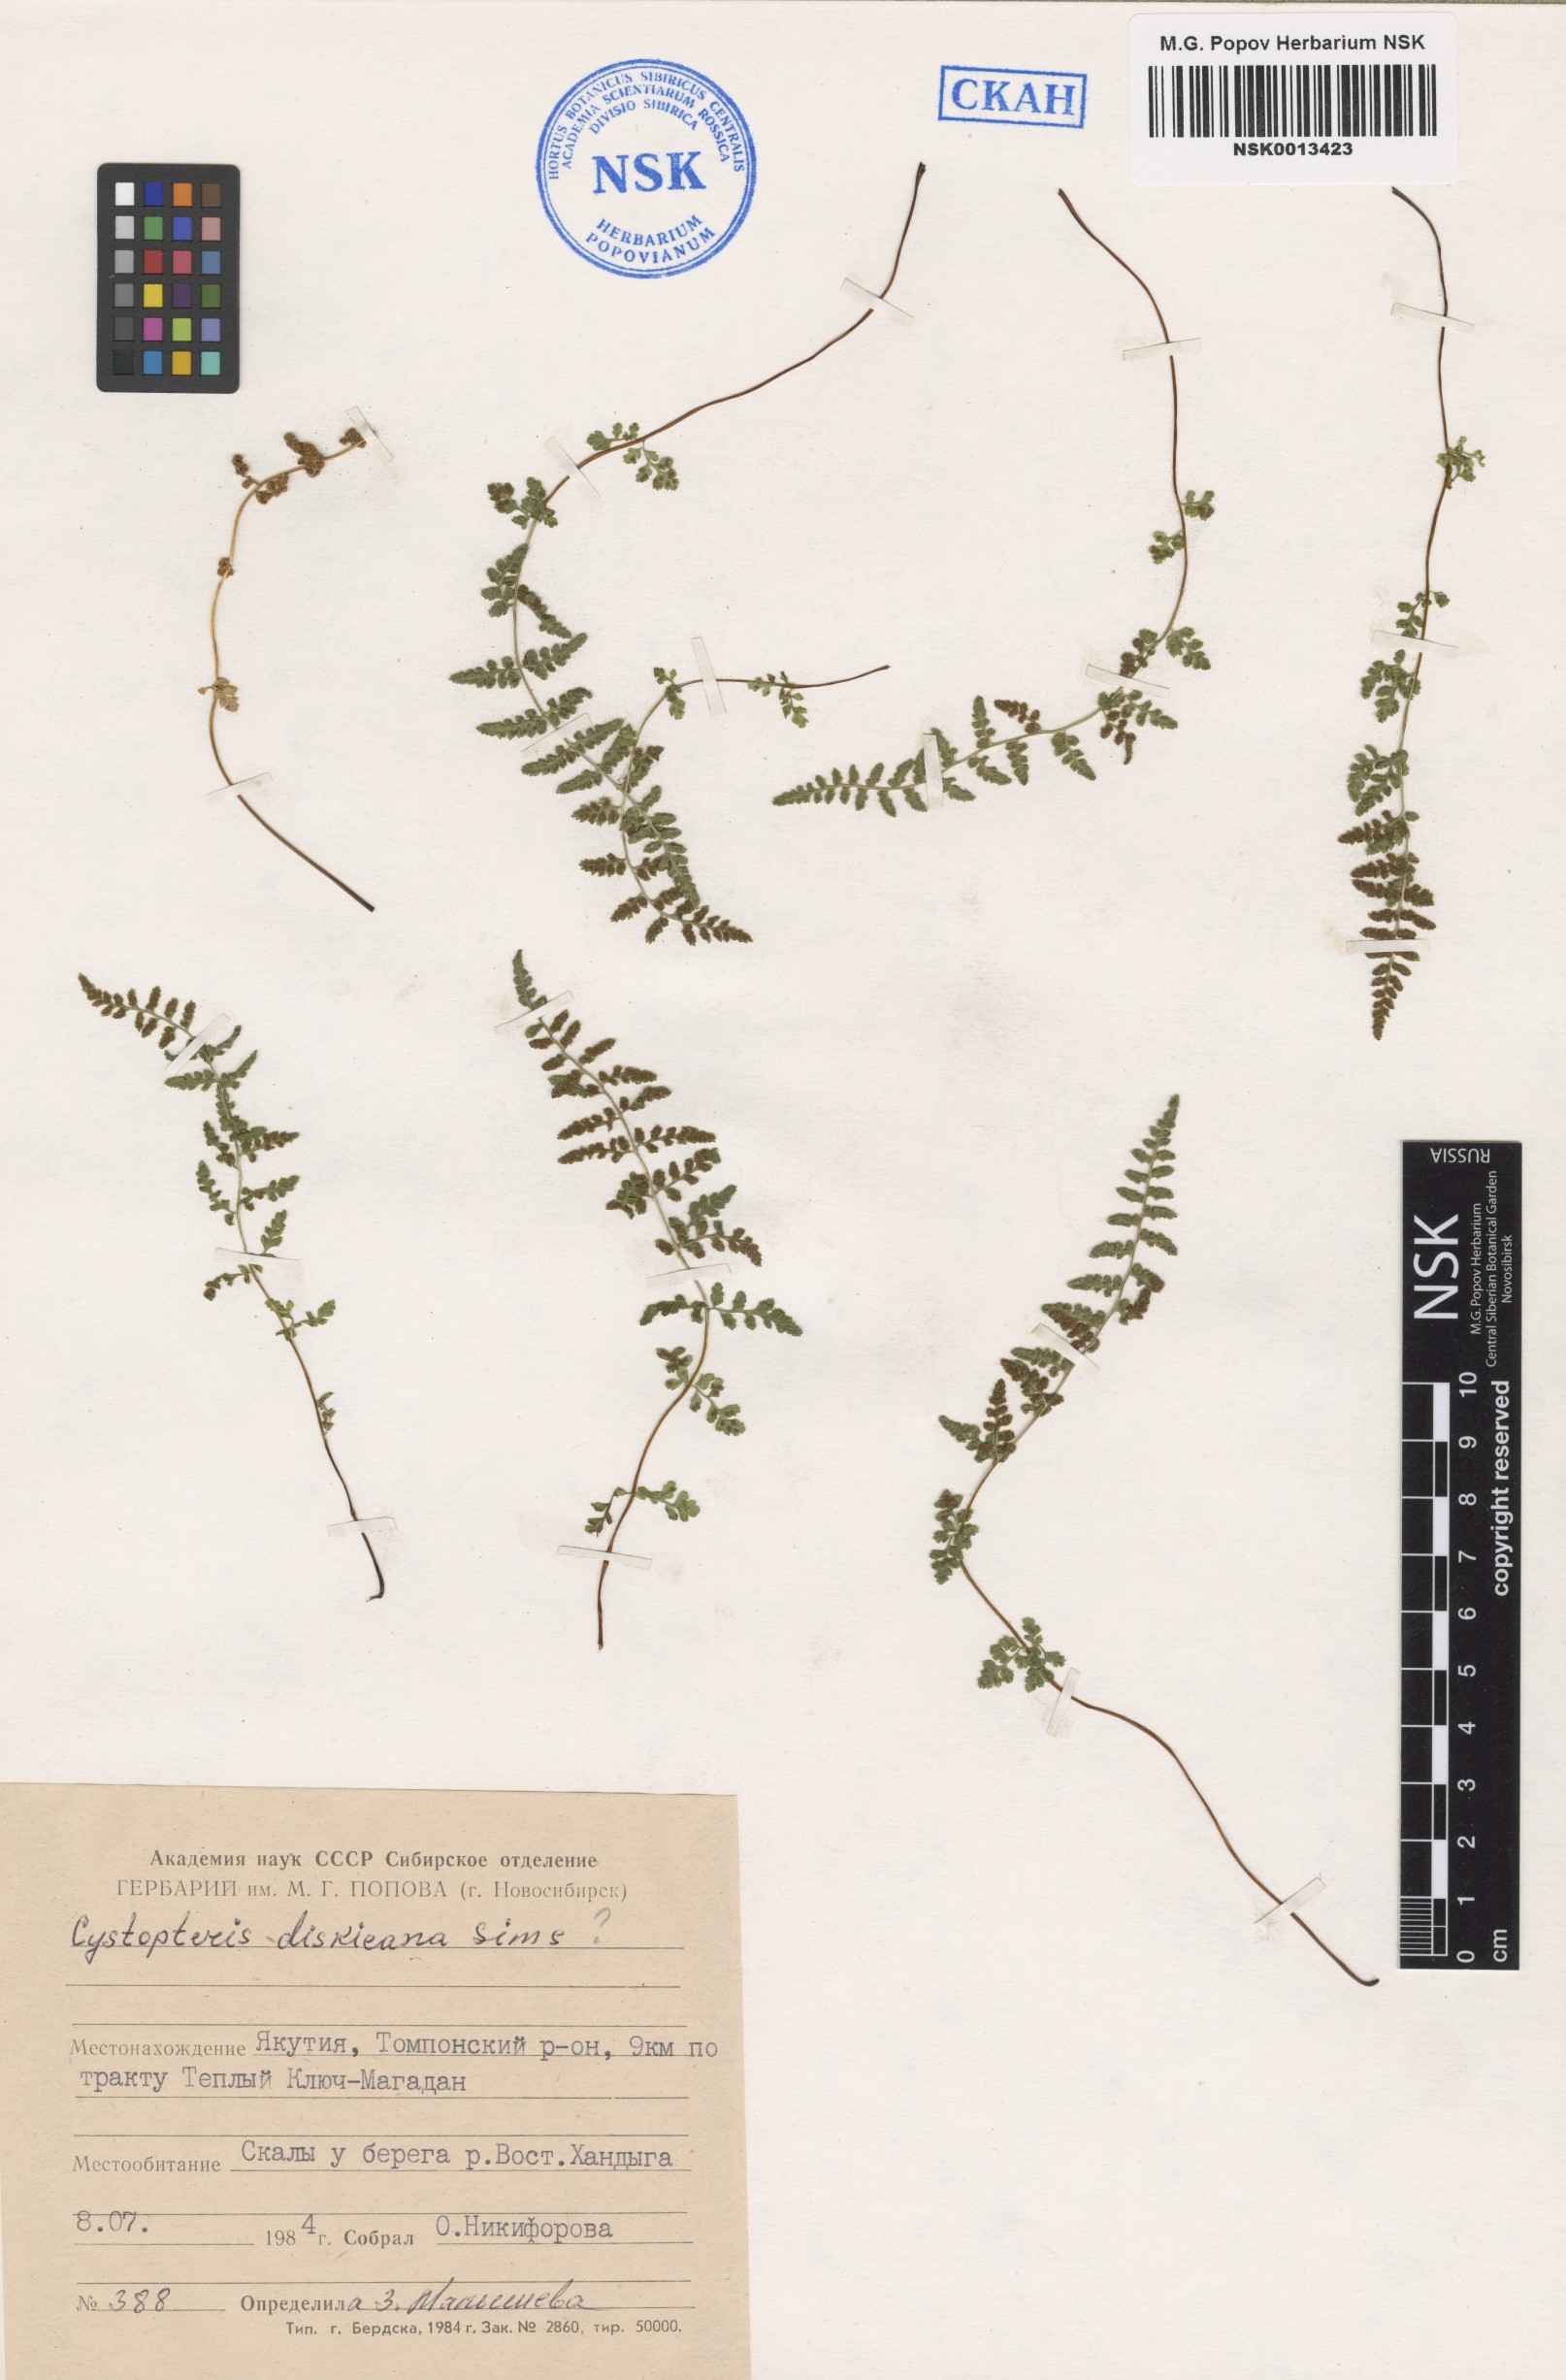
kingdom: Plantae
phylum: Tracheophyta
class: Polypodiopsida
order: Polypodiales
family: Cystopteridaceae
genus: Cystopteris
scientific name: Cystopteris dickieana
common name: Dickie's bladder-fern
